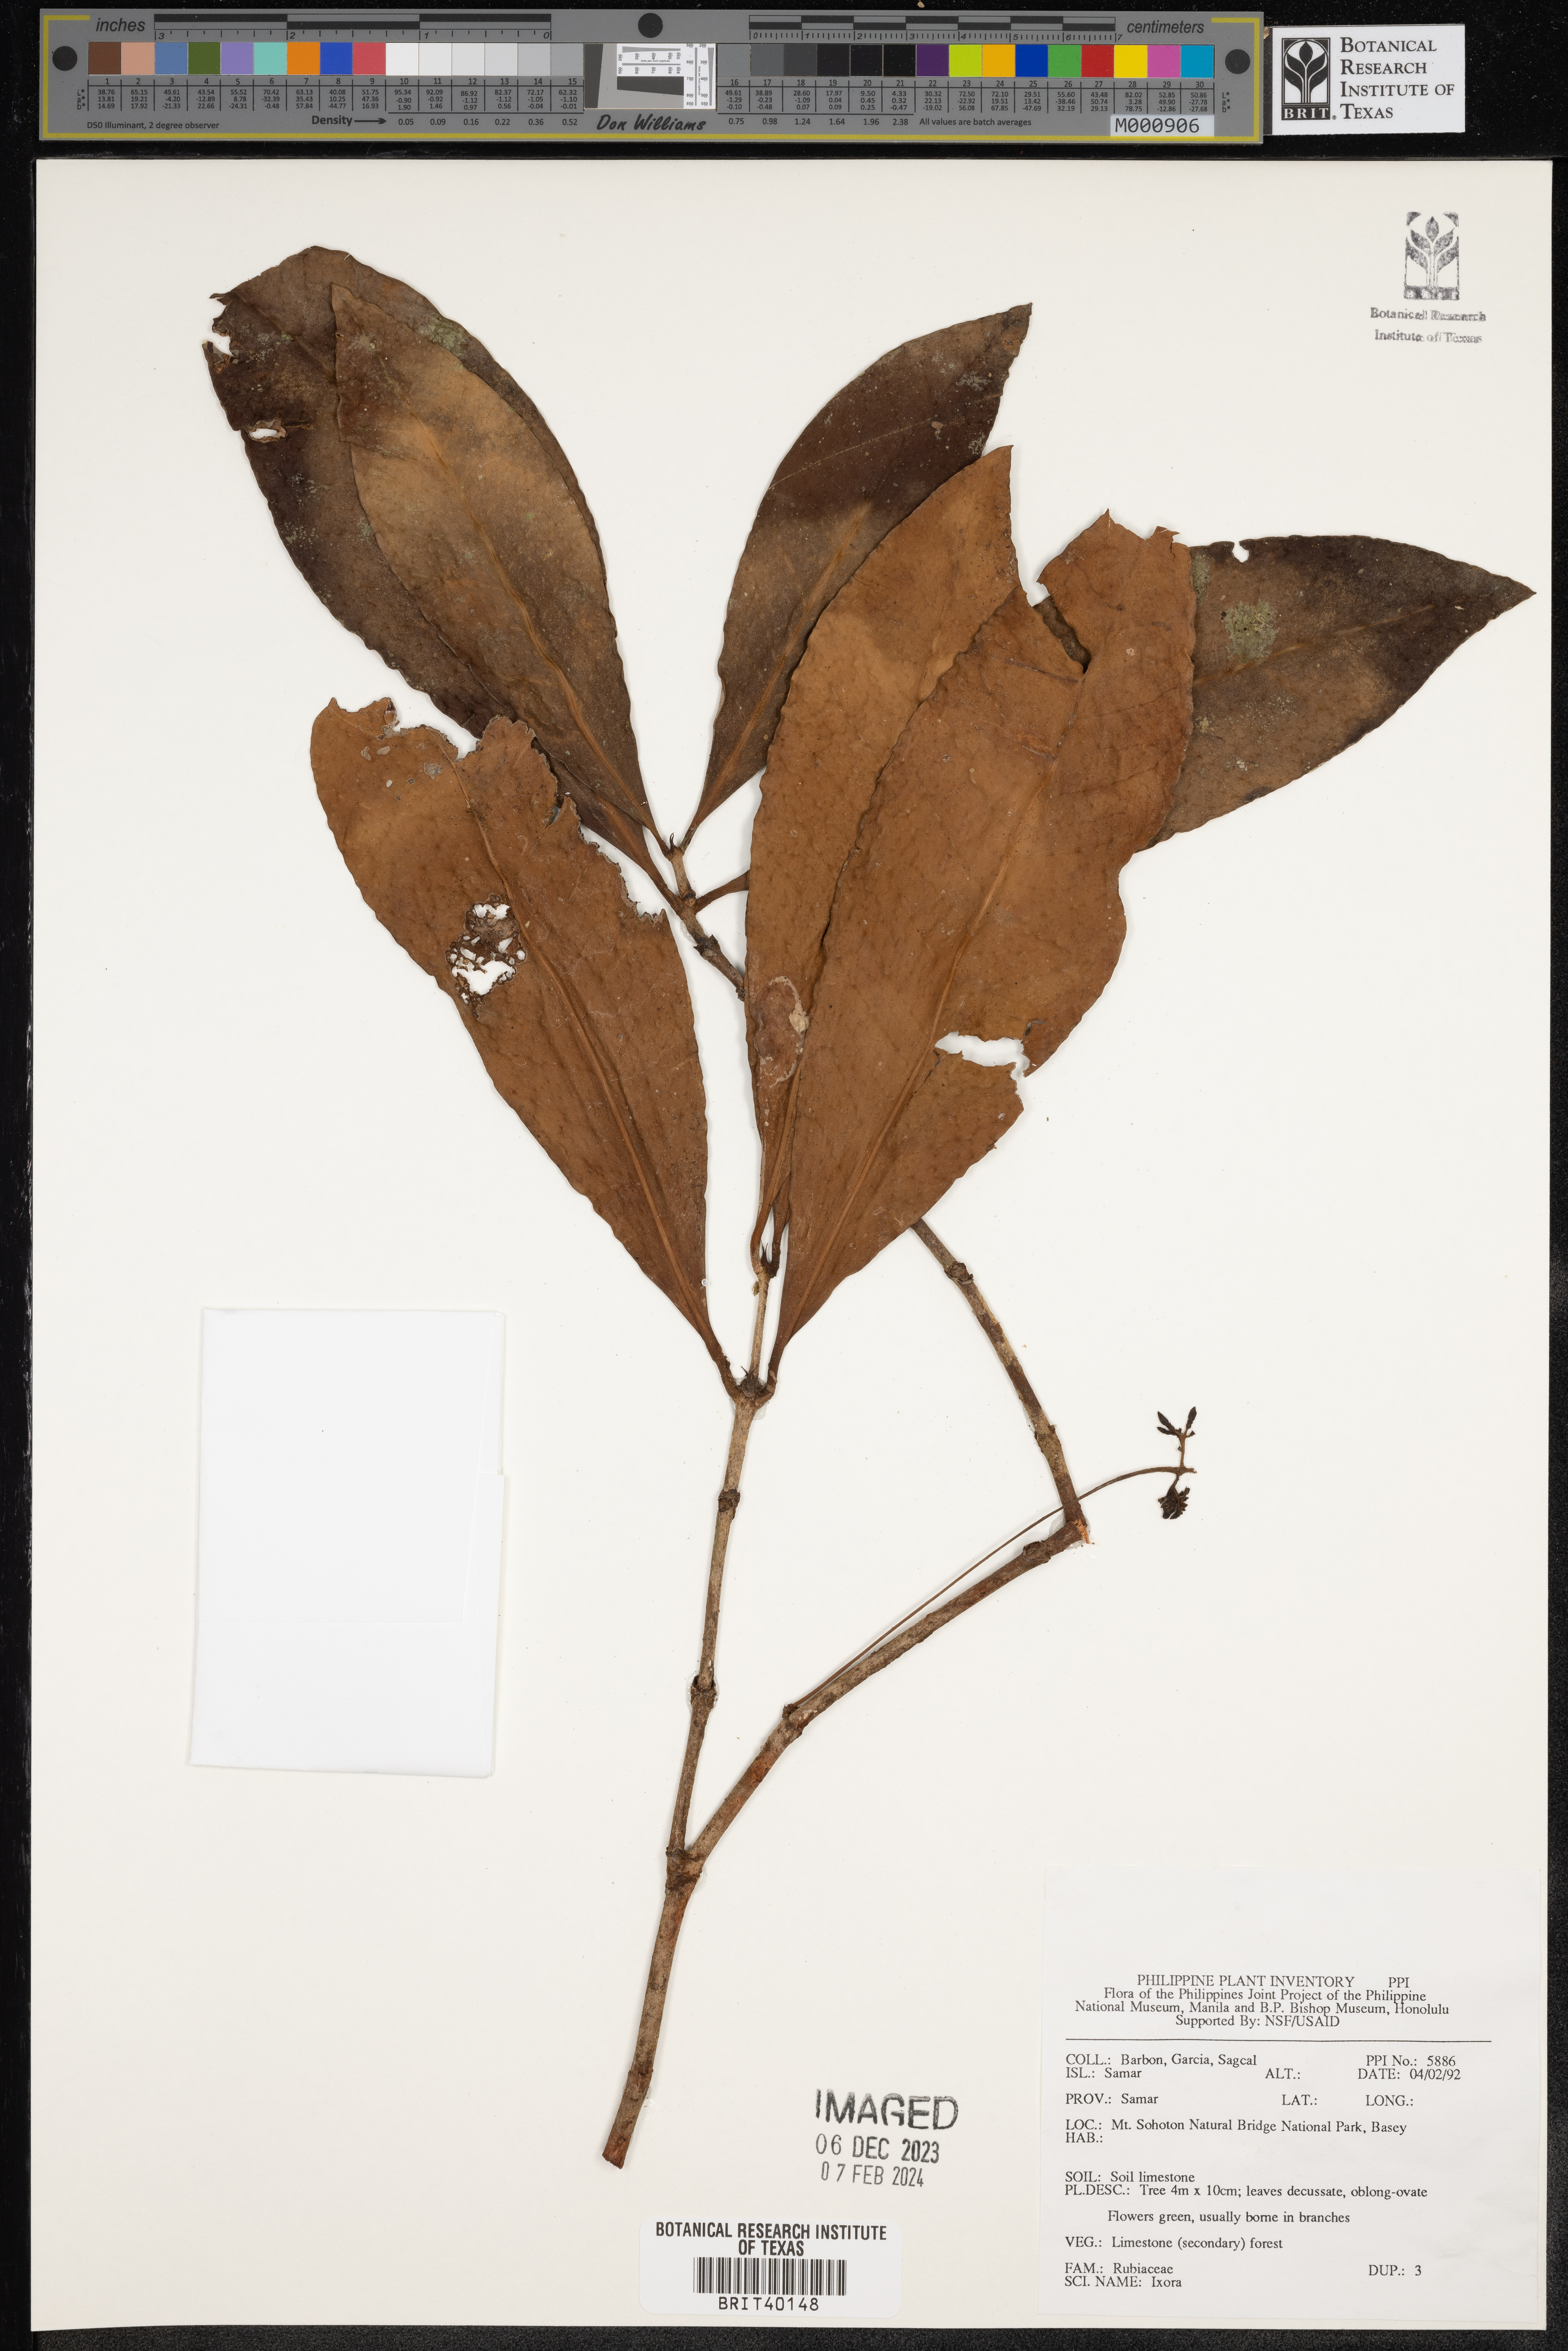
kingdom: Plantae
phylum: Tracheophyta
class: Magnoliopsida
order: Gentianales
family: Rubiaceae
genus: Ixora
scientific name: Ixora
